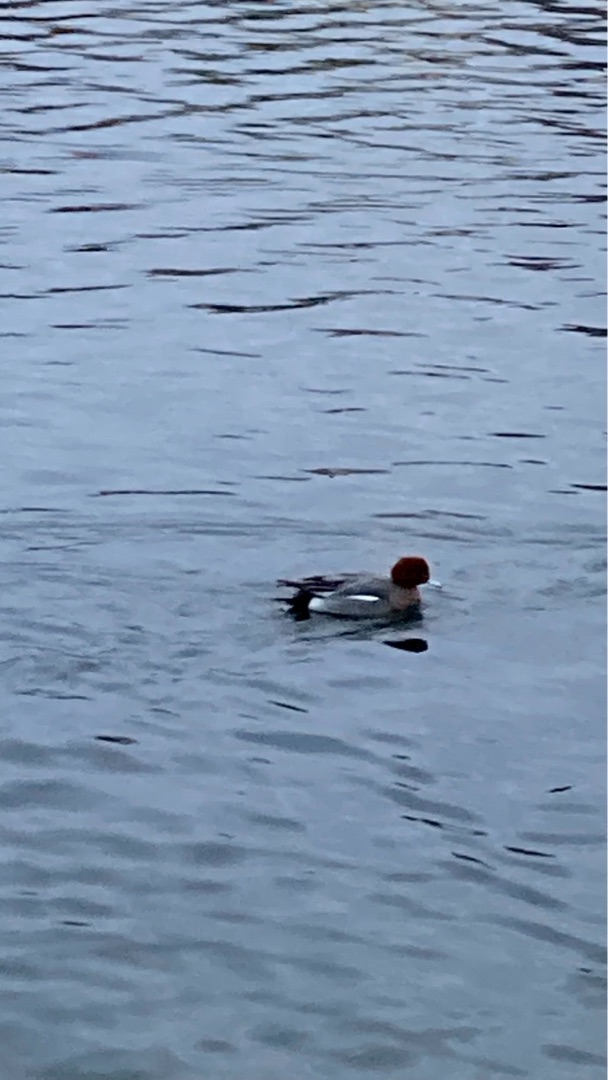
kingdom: Animalia
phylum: Chordata
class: Aves
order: Anseriformes
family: Anatidae
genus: Mareca
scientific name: Mareca penelope
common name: Pibeand
